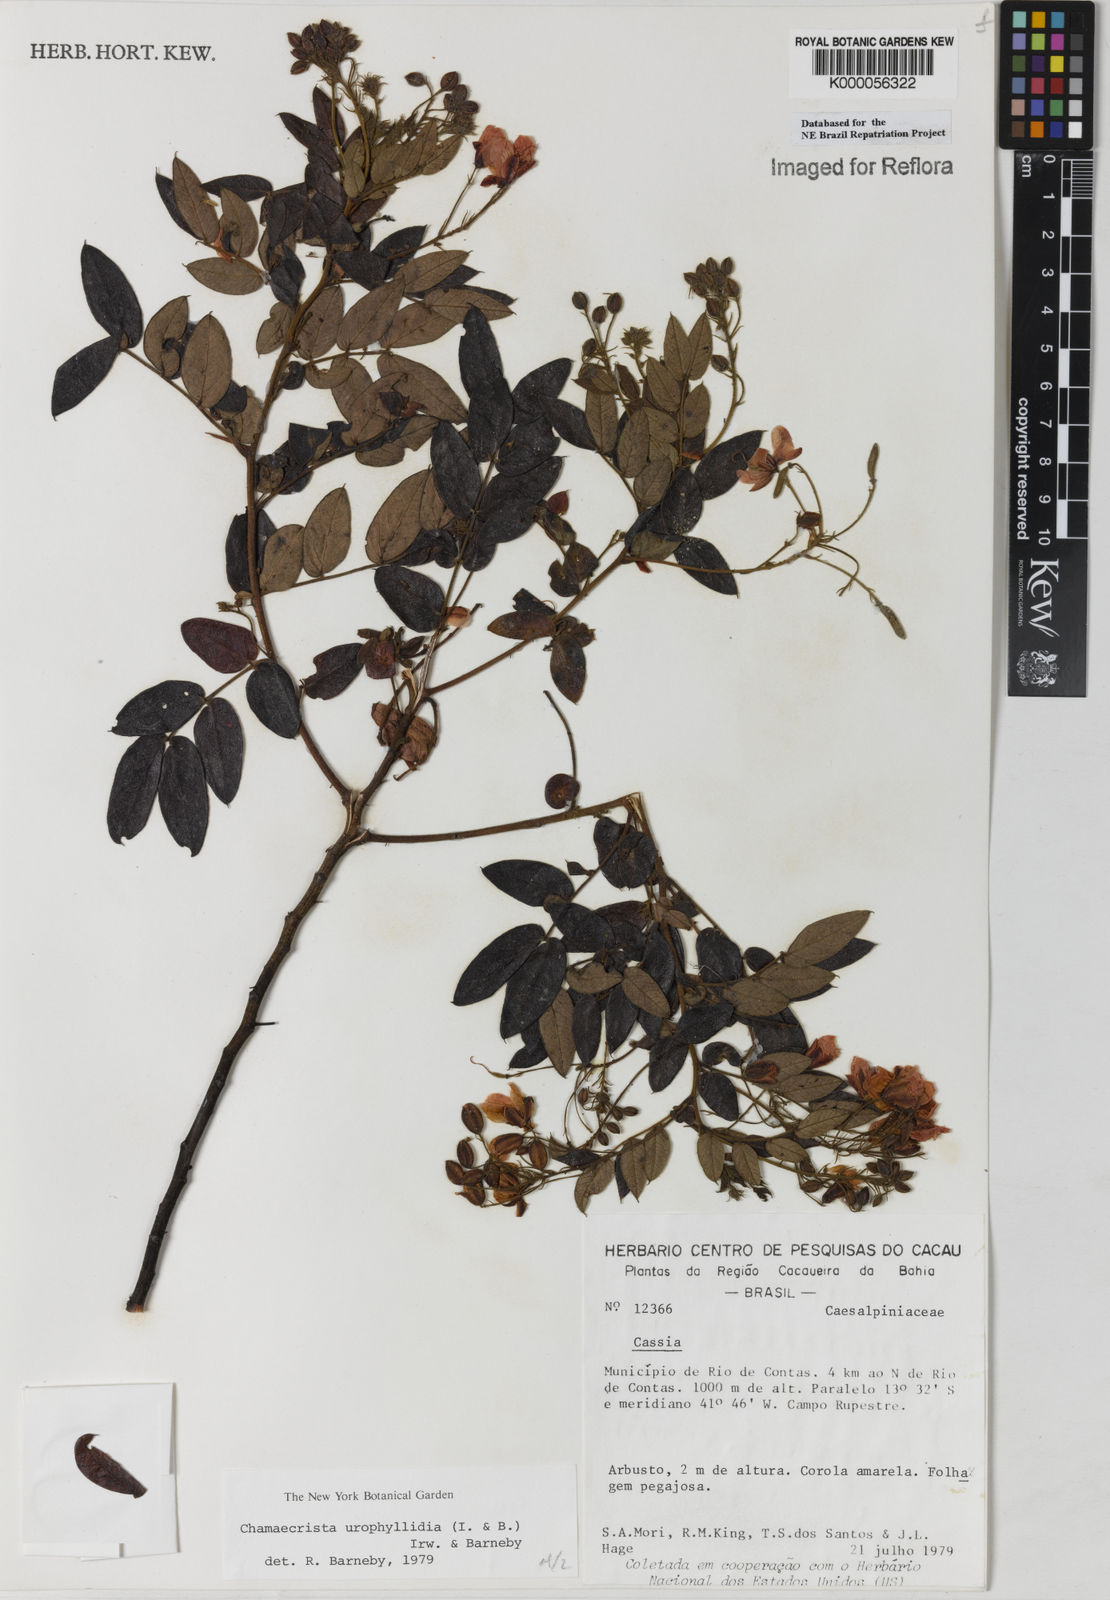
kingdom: Plantae
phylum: Tracheophyta
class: Magnoliopsida
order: Fabales
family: Fabaceae
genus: Chamaecrista
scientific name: Chamaecrista urophyllidia
